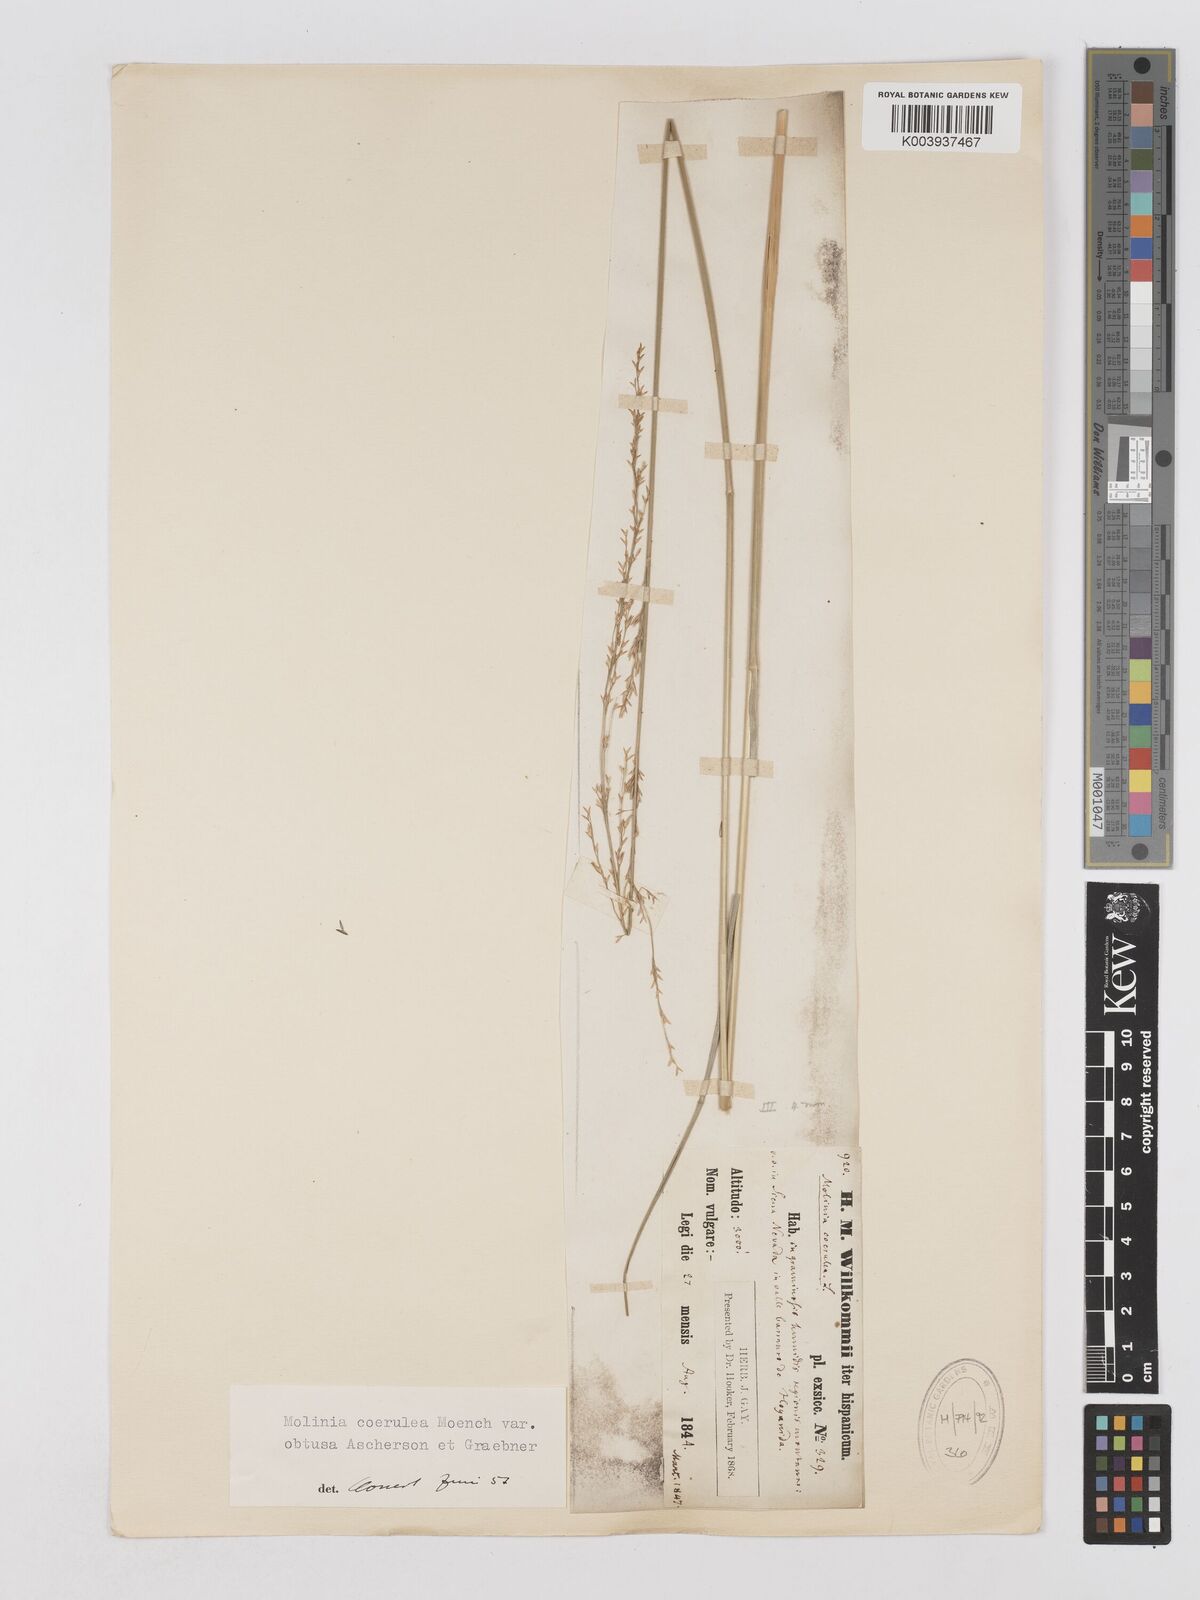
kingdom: Plantae
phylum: Tracheophyta
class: Liliopsida
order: Poales
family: Poaceae
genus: Molinia
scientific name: Molinia caerulea
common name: Purple moor-grass
